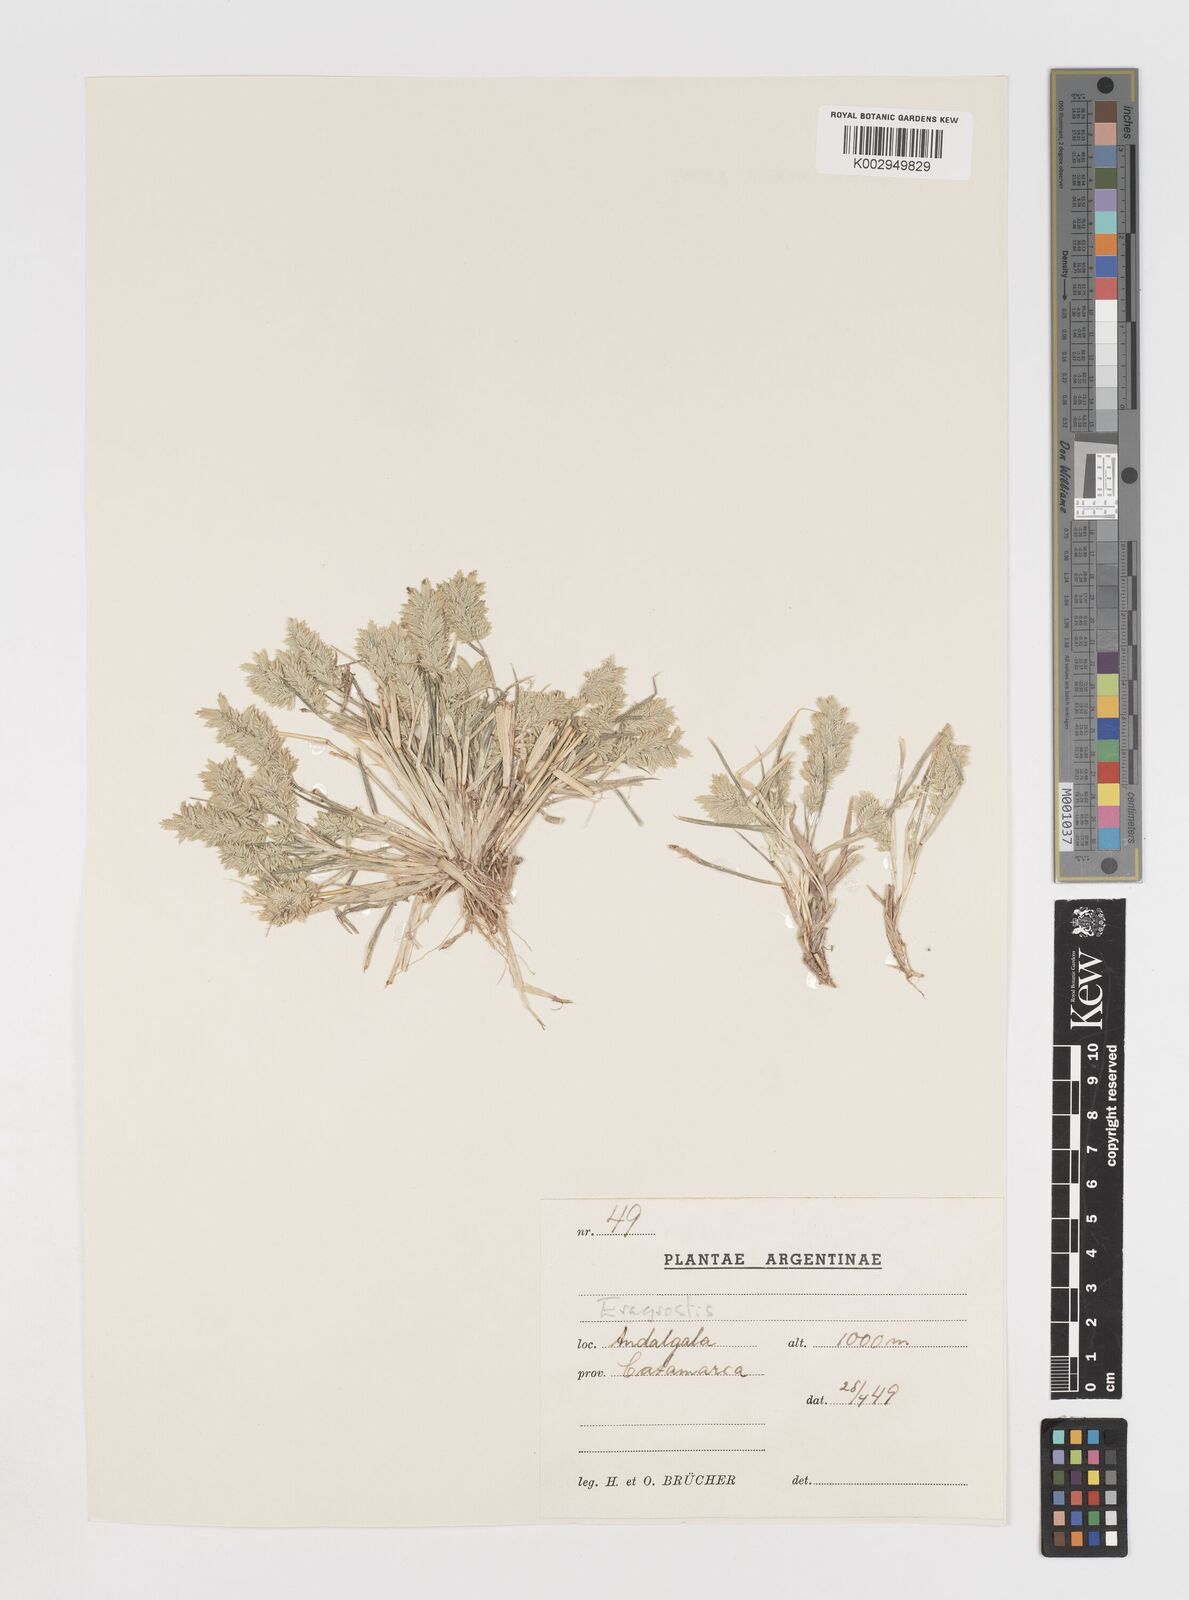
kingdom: Plantae
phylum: Tracheophyta
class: Liliopsida
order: Poales
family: Poaceae
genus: Eragrostis
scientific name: Eragrostis cilianensis
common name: Stinkgrass
